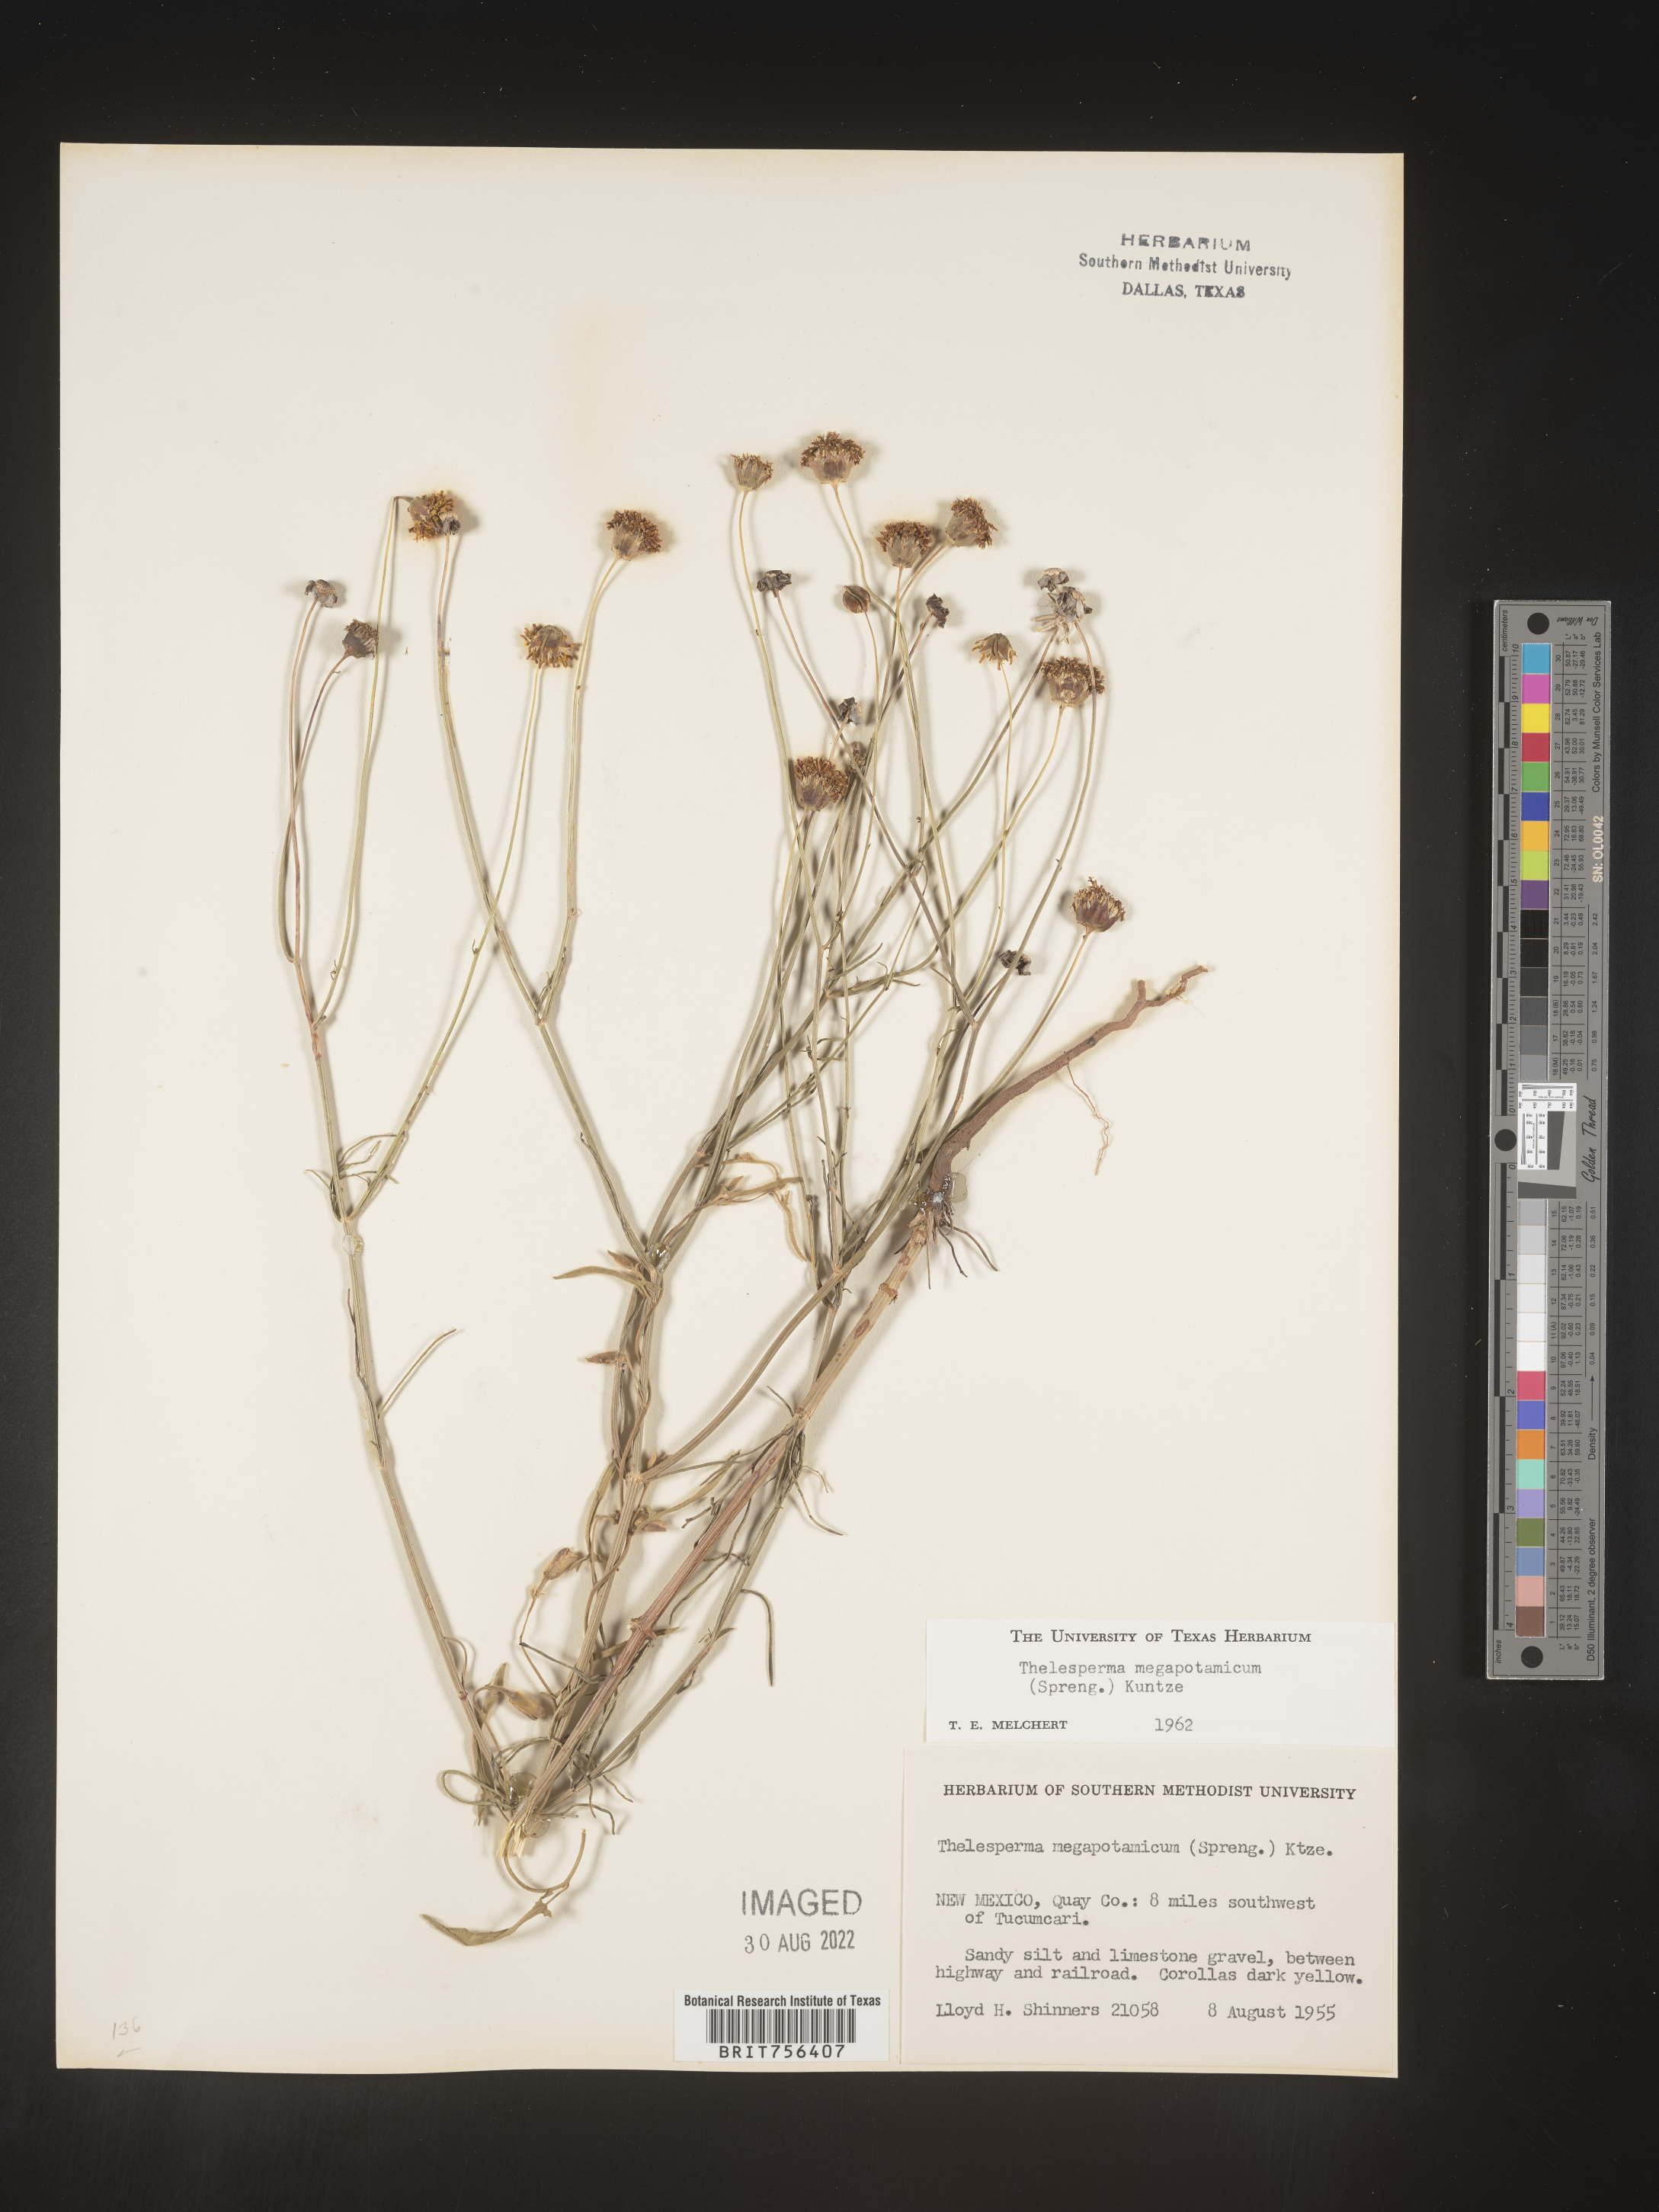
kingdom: Plantae
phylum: Tracheophyta
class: Magnoliopsida
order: Asterales
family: Asteraceae
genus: Thelesperma
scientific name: Thelesperma megapotamicum
